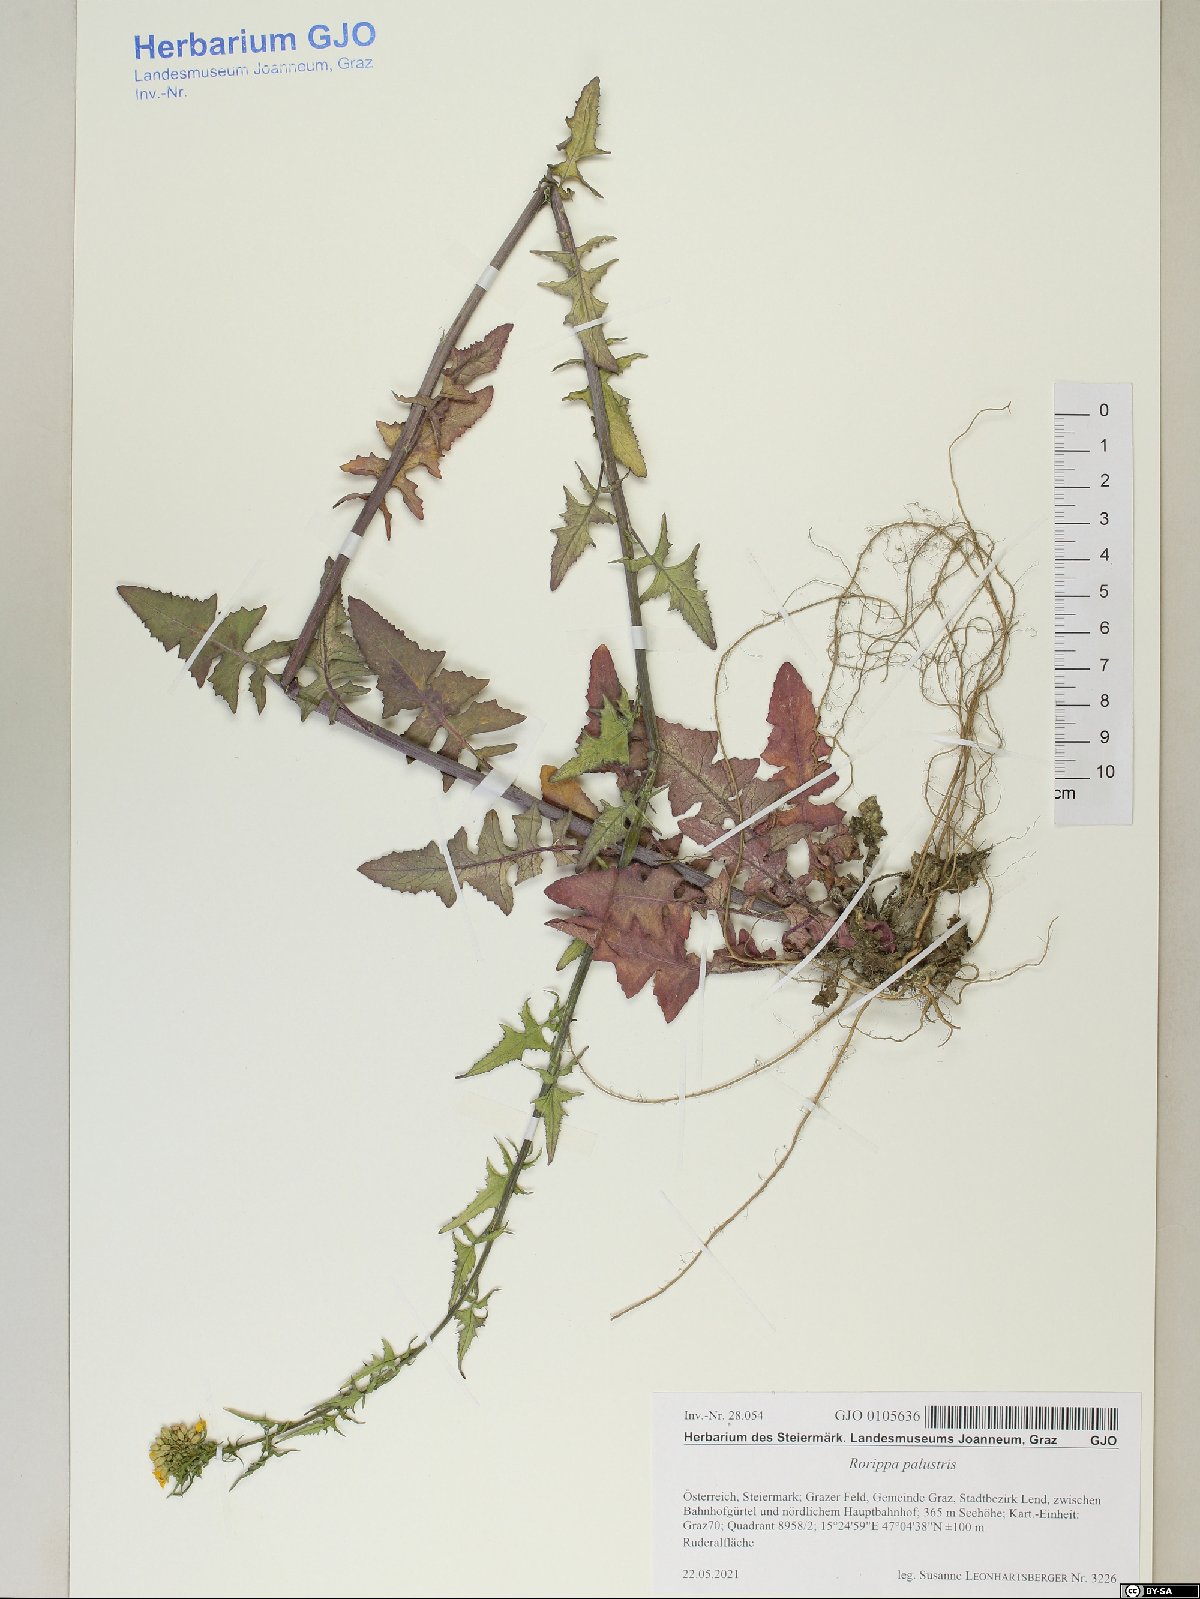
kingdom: Plantae
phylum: Tracheophyta
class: Magnoliopsida
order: Brassicales
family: Brassicaceae
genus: Rorippa
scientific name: Rorippa palustris
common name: Marsh yellow-cress
